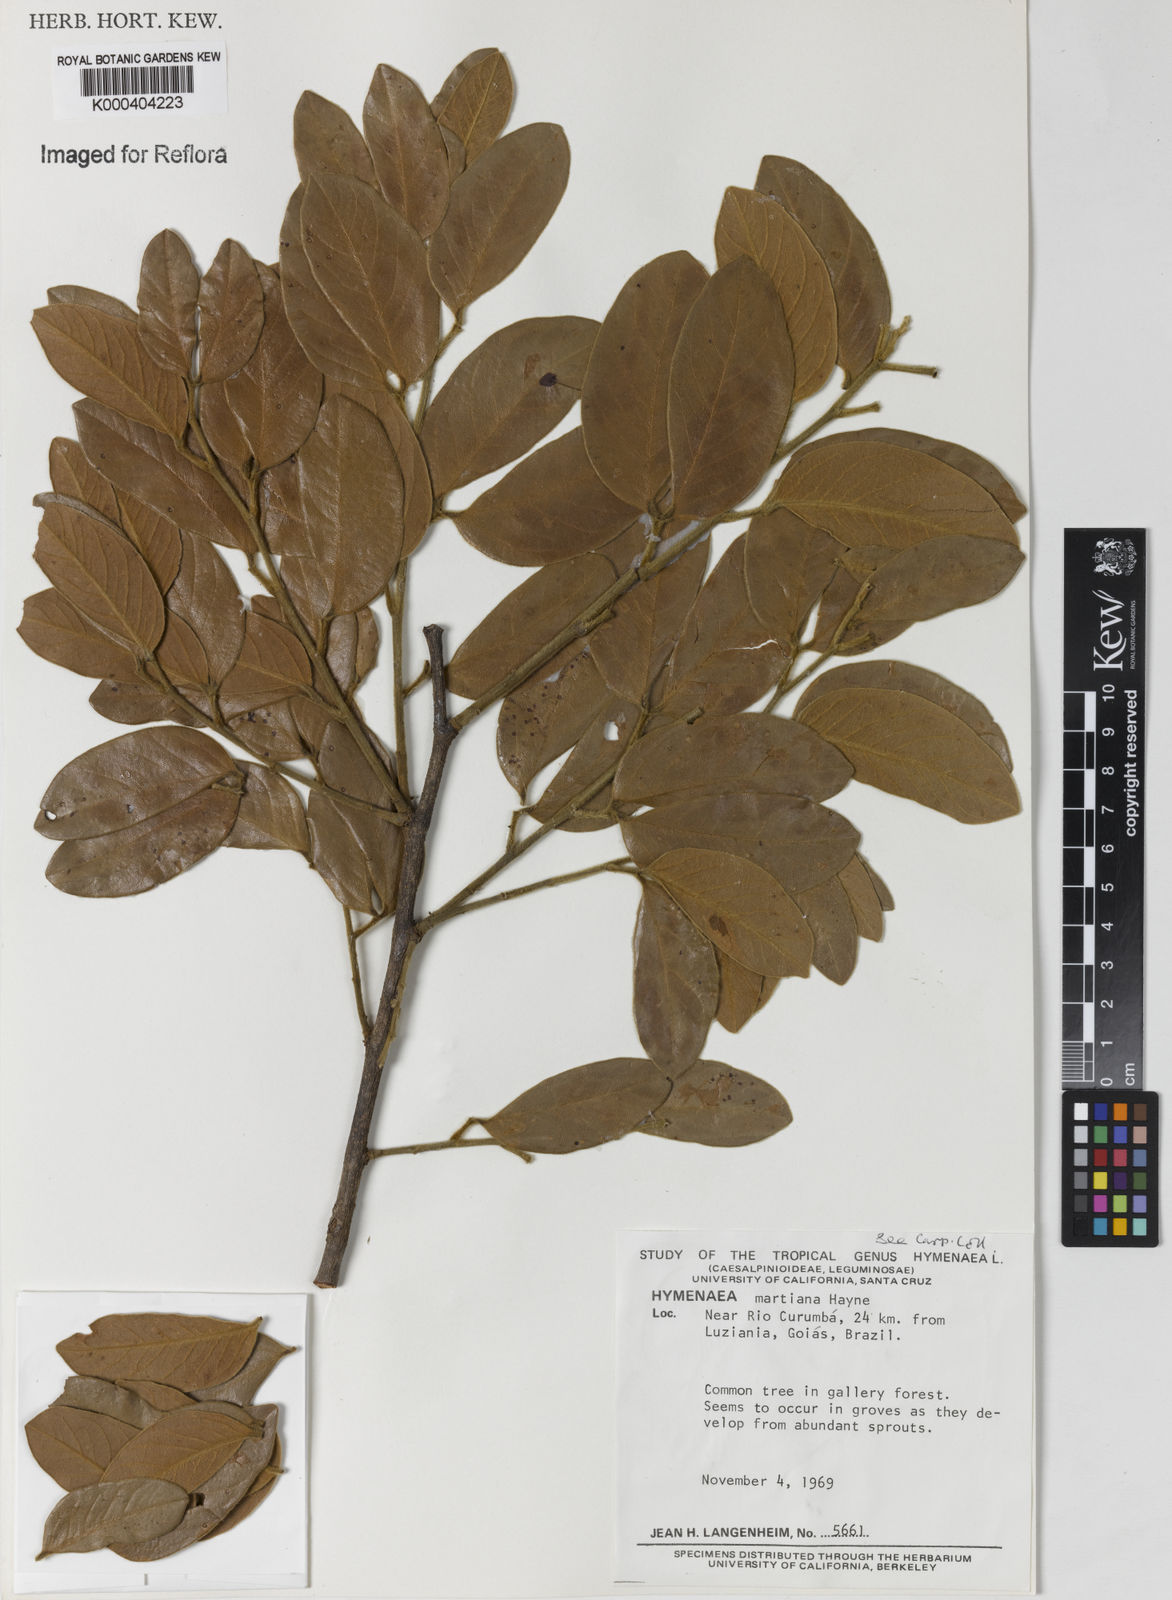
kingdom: Plantae
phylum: Tracheophyta
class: Magnoliopsida
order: Fabales
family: Fabaceae
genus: Hymenaea
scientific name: Hymenaea martiana
